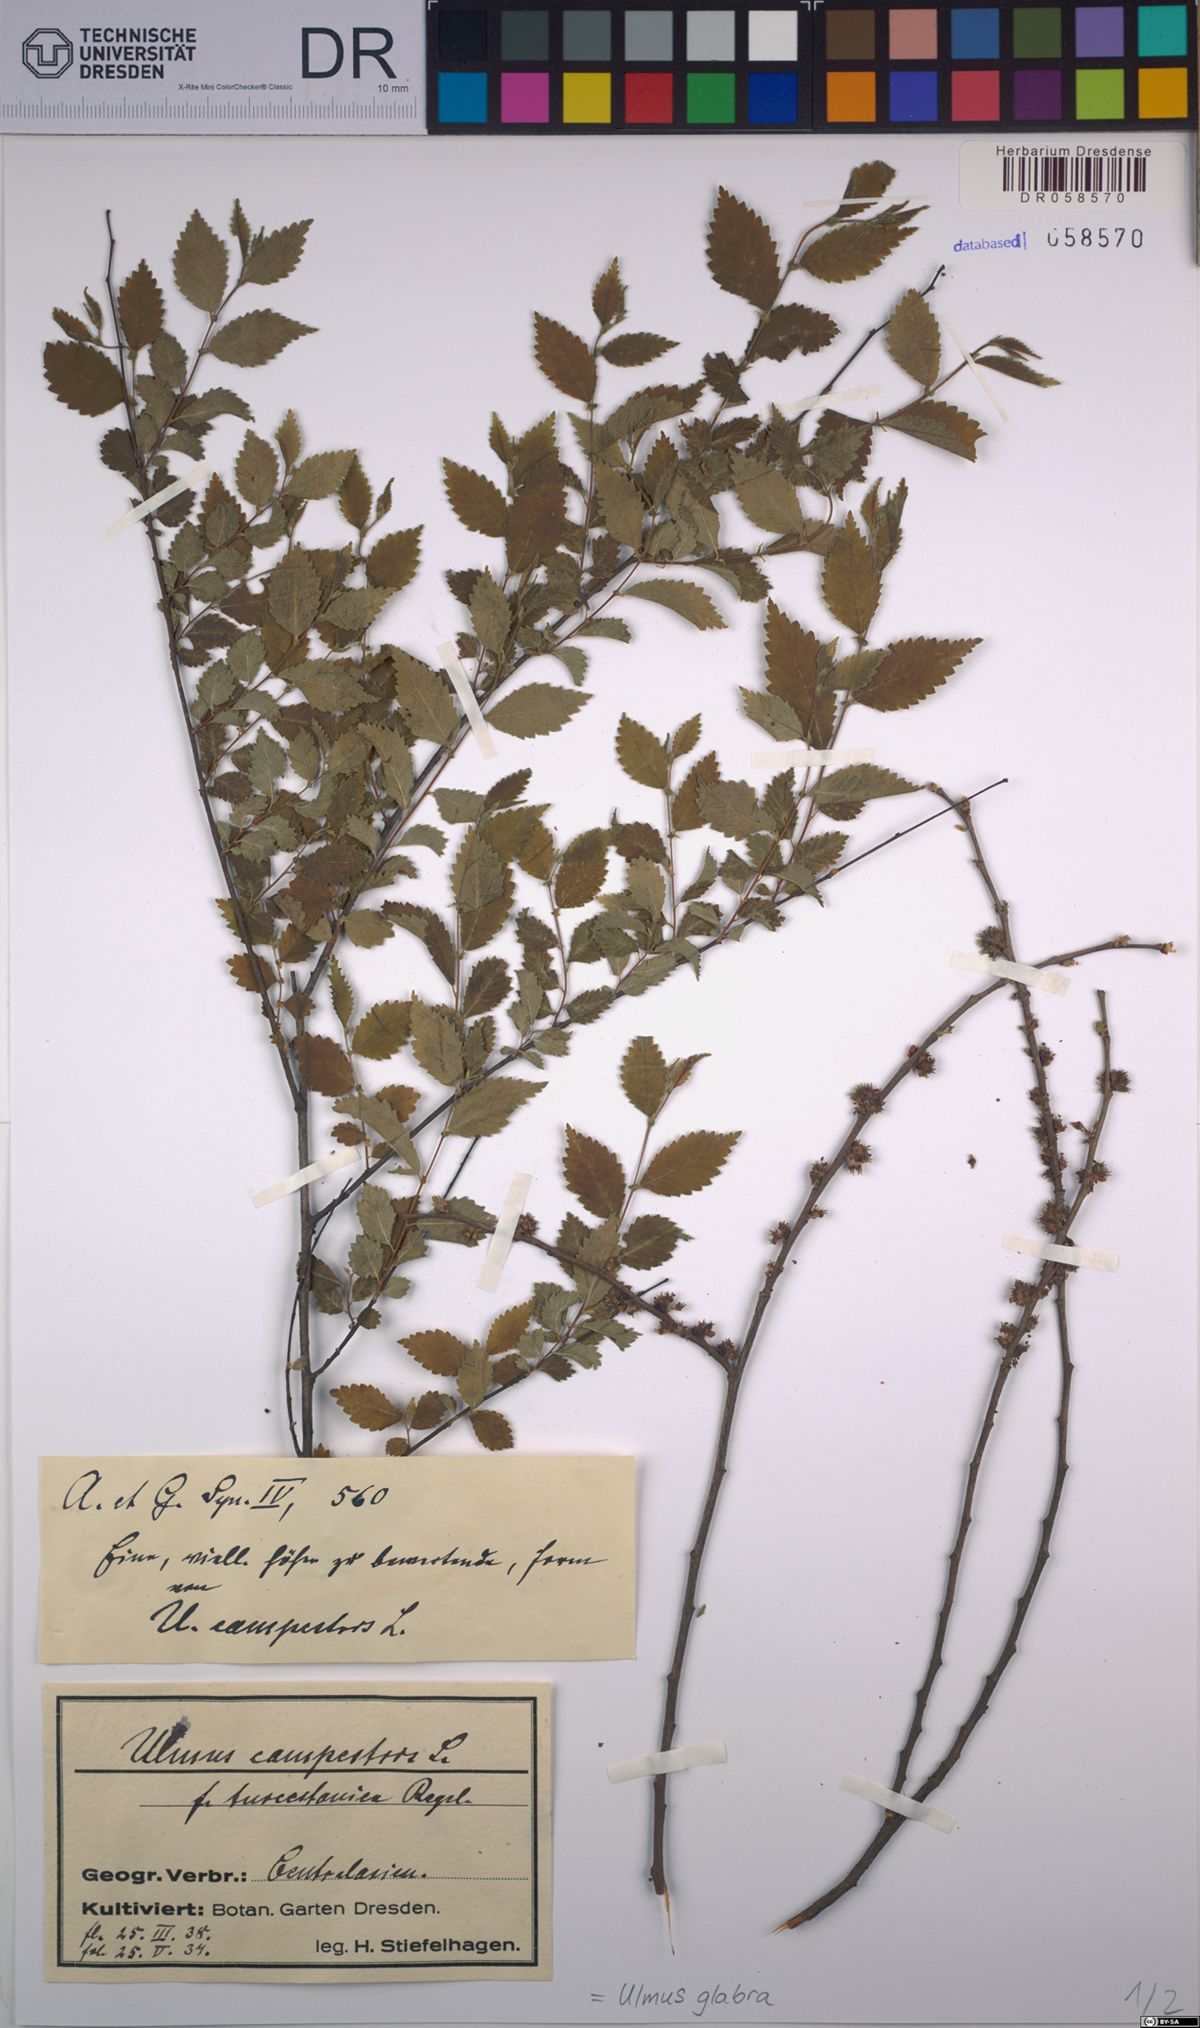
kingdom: Plantae
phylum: Tracheophyta
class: Magnoliopsida
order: Rosales
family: Ulmaceae
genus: Ulmus
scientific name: Ulmus glabra
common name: Wych elm
